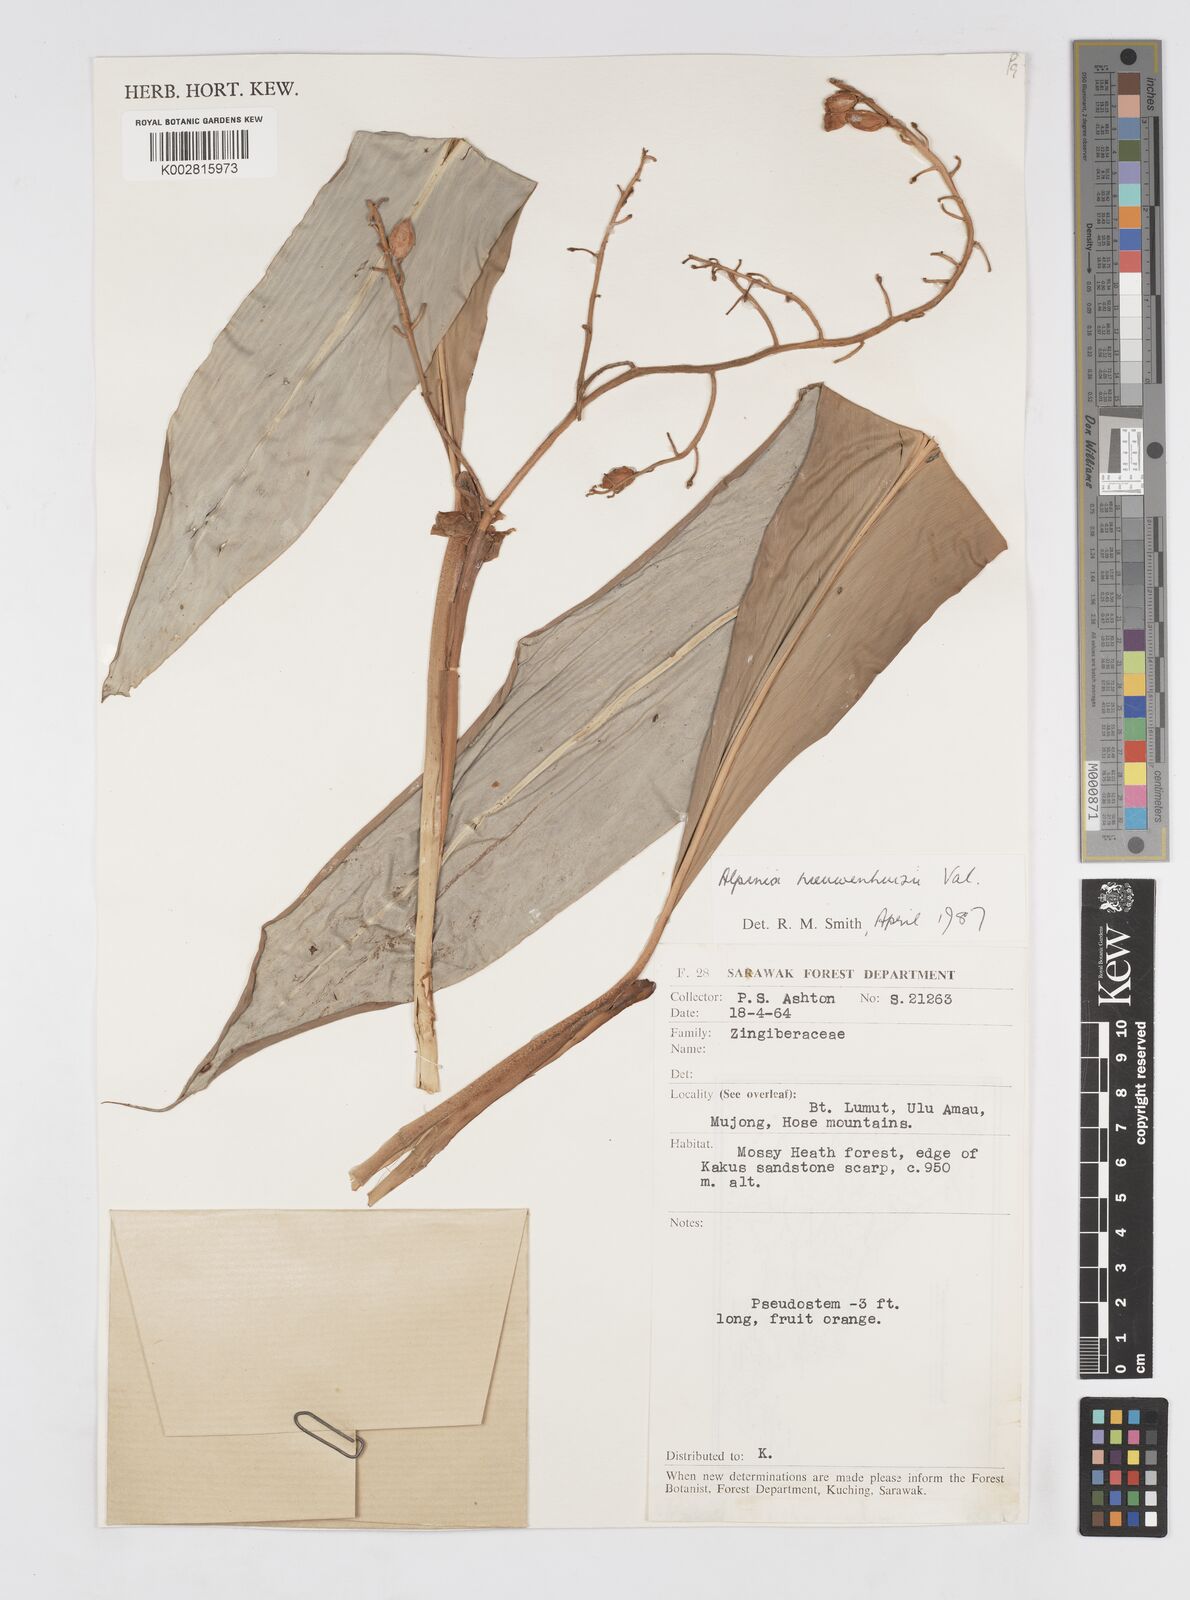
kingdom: Plantae
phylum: Tracheophyta
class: Liliopsida
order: Zingiberales
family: Zingiberaceae
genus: Alpinia
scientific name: Alpinia nieuwenhuizii
